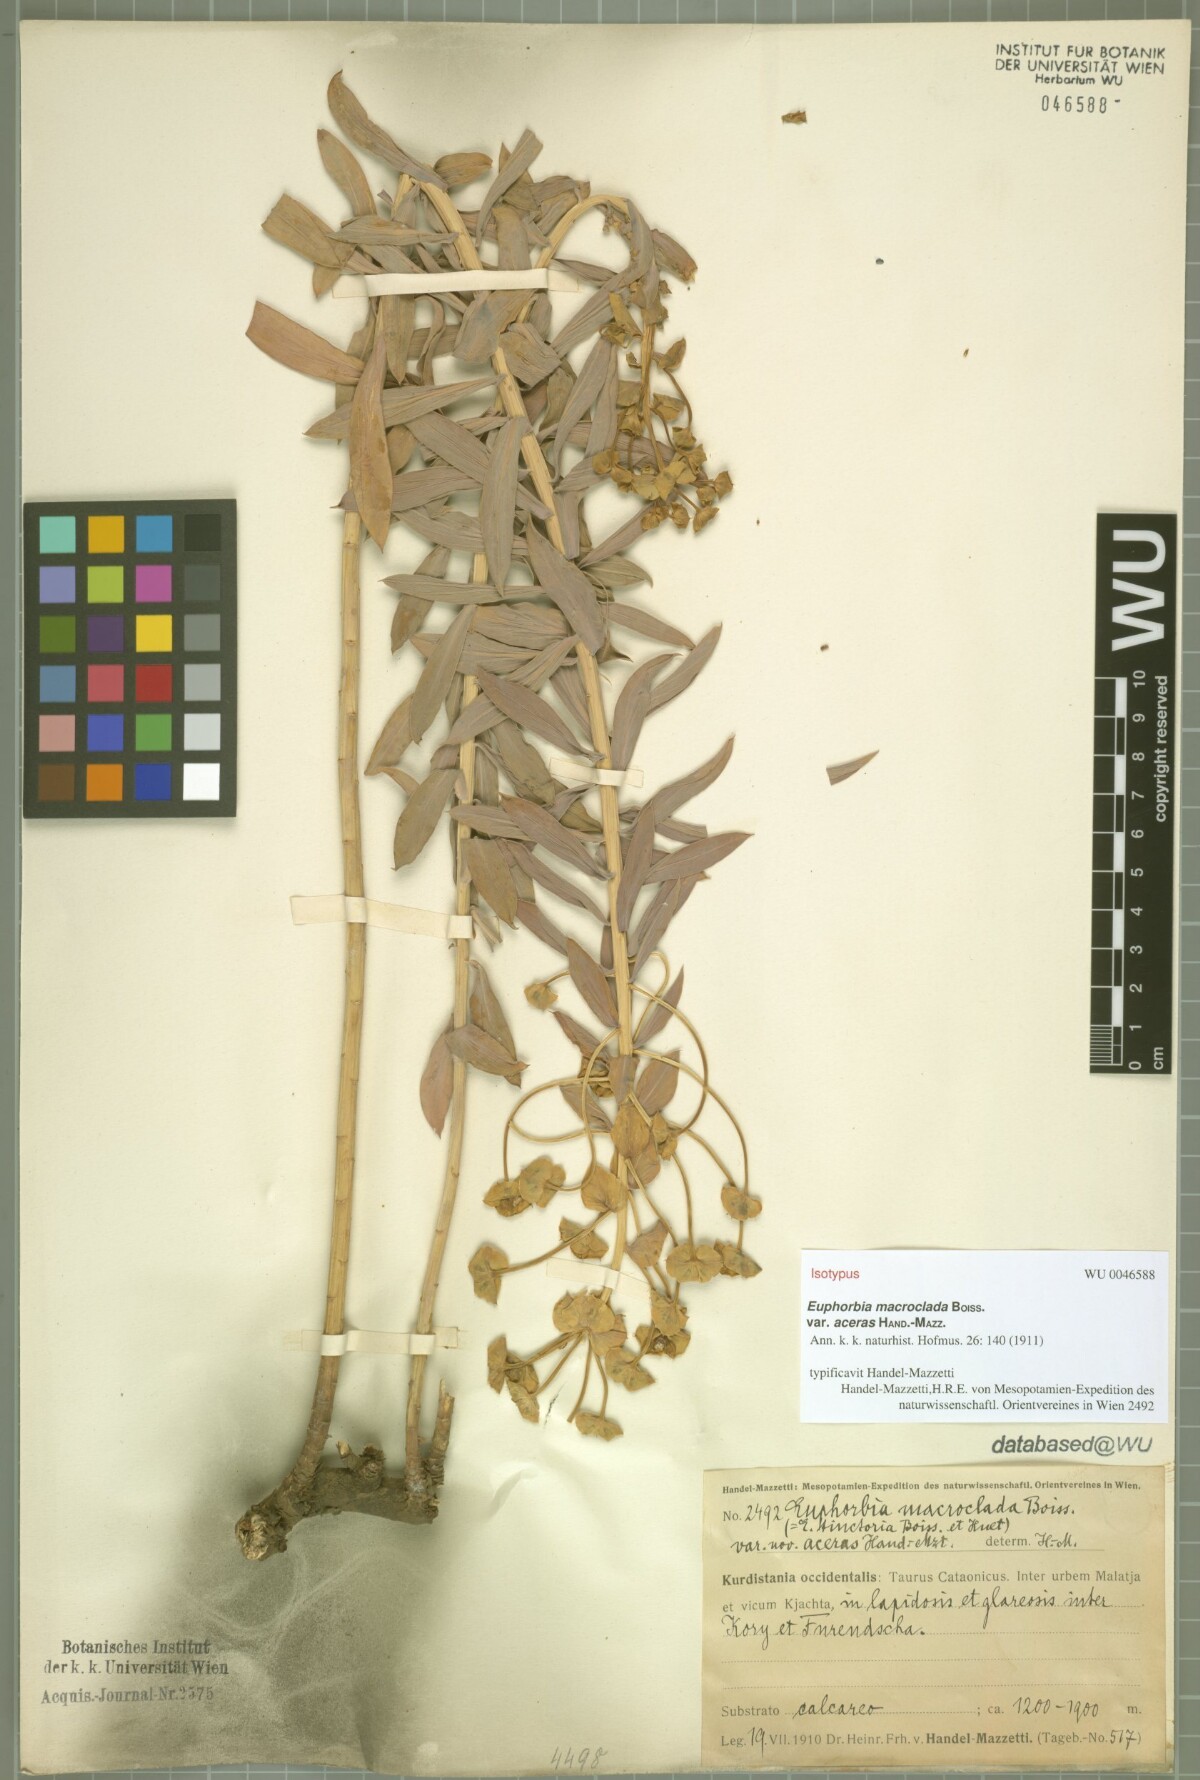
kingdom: Plantae
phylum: Tracheophyta
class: Magnoliopsida
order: Malpighiales
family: Euphorbiaceae
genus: Euphorbia
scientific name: Euphorbia macroclada
